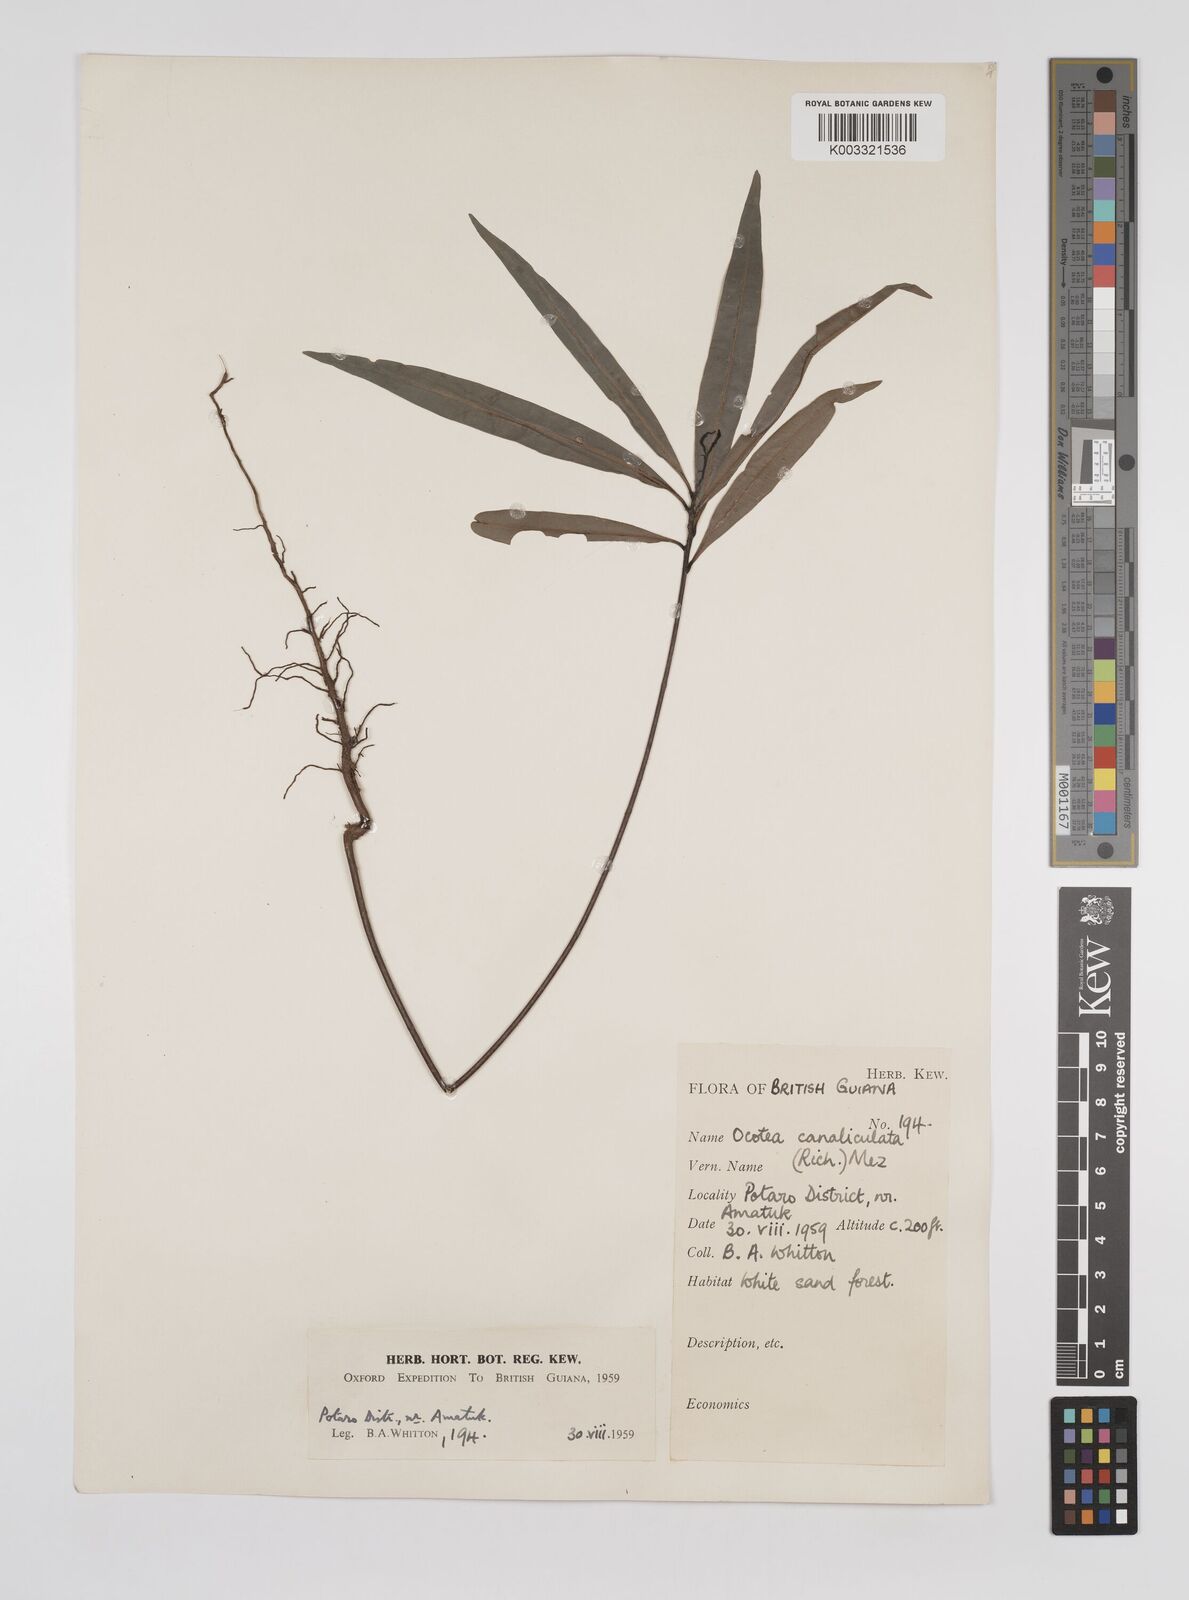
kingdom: Plantae
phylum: Tracheophyta
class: Magnoliopsida
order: Laurales
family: Lauraceae
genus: Ocotea
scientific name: Ocotea canaliculata
